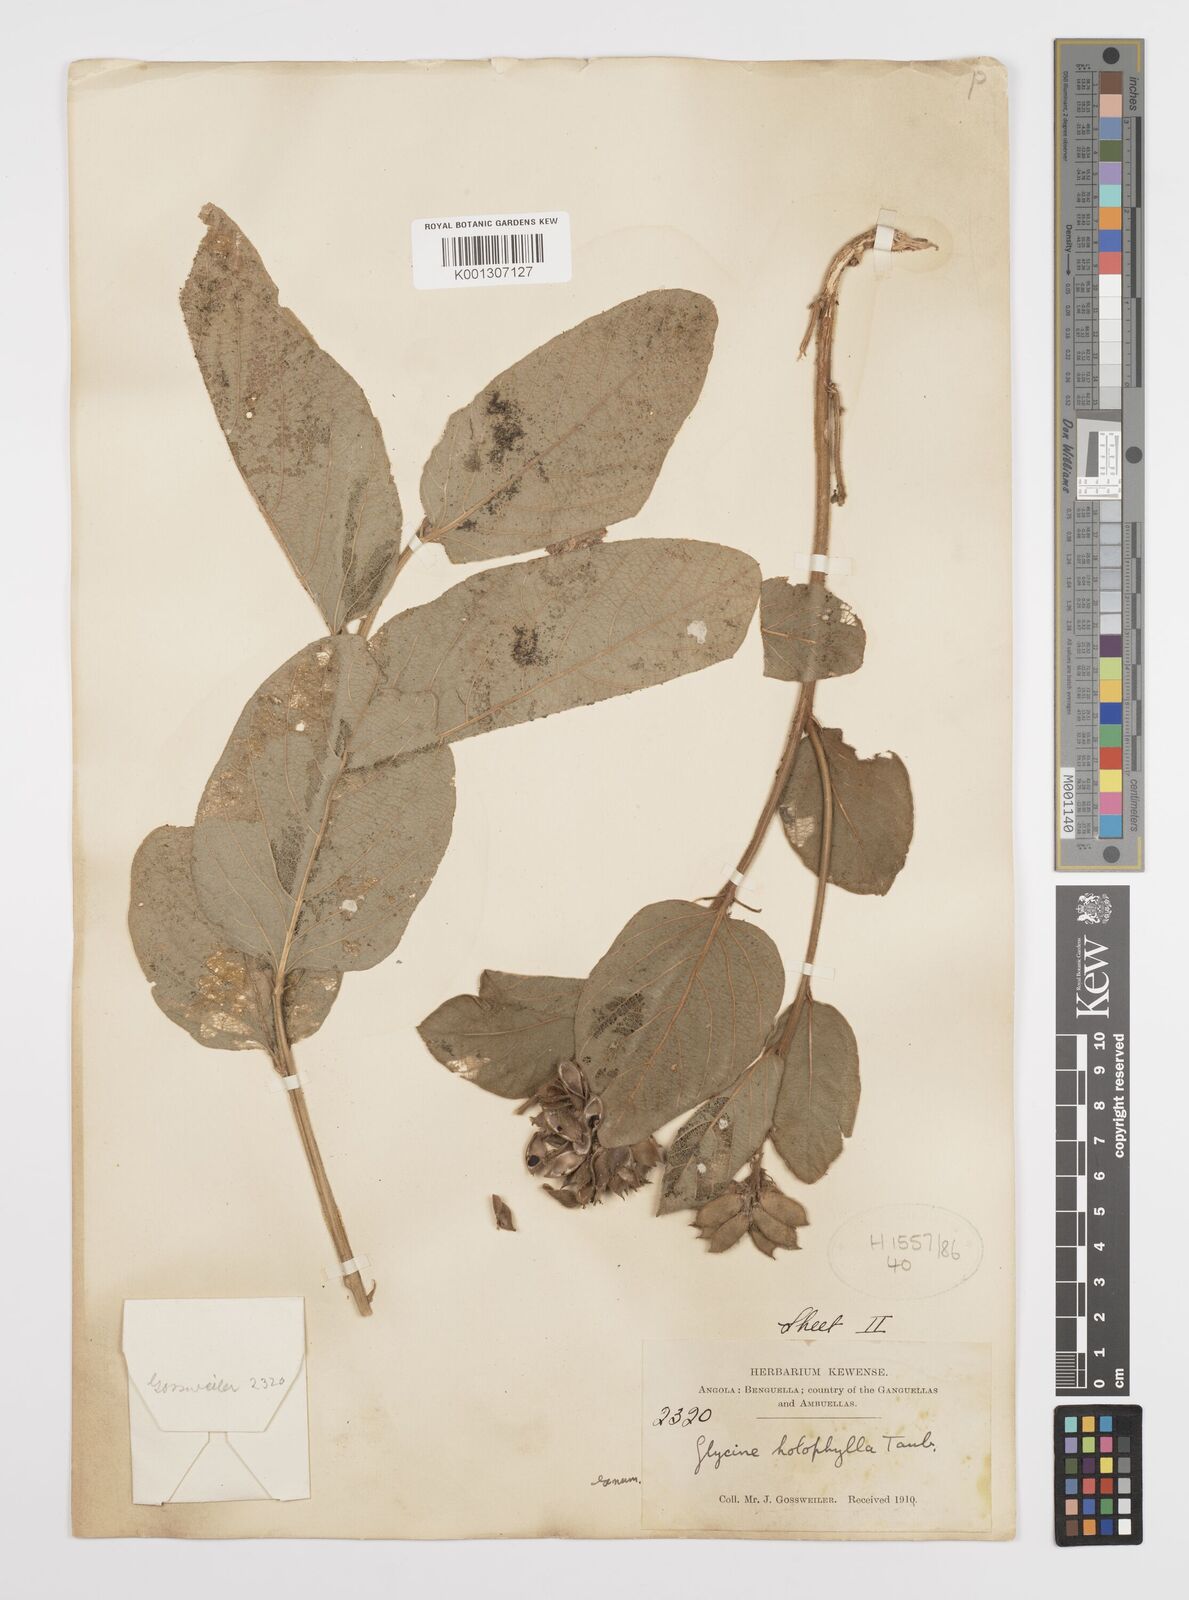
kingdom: Plantae
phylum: Tracheophyta
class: Magnoliopsida
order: Fabales
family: Fabaceae
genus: Pseudoeriosema
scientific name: Pseudoeriosema andongense
